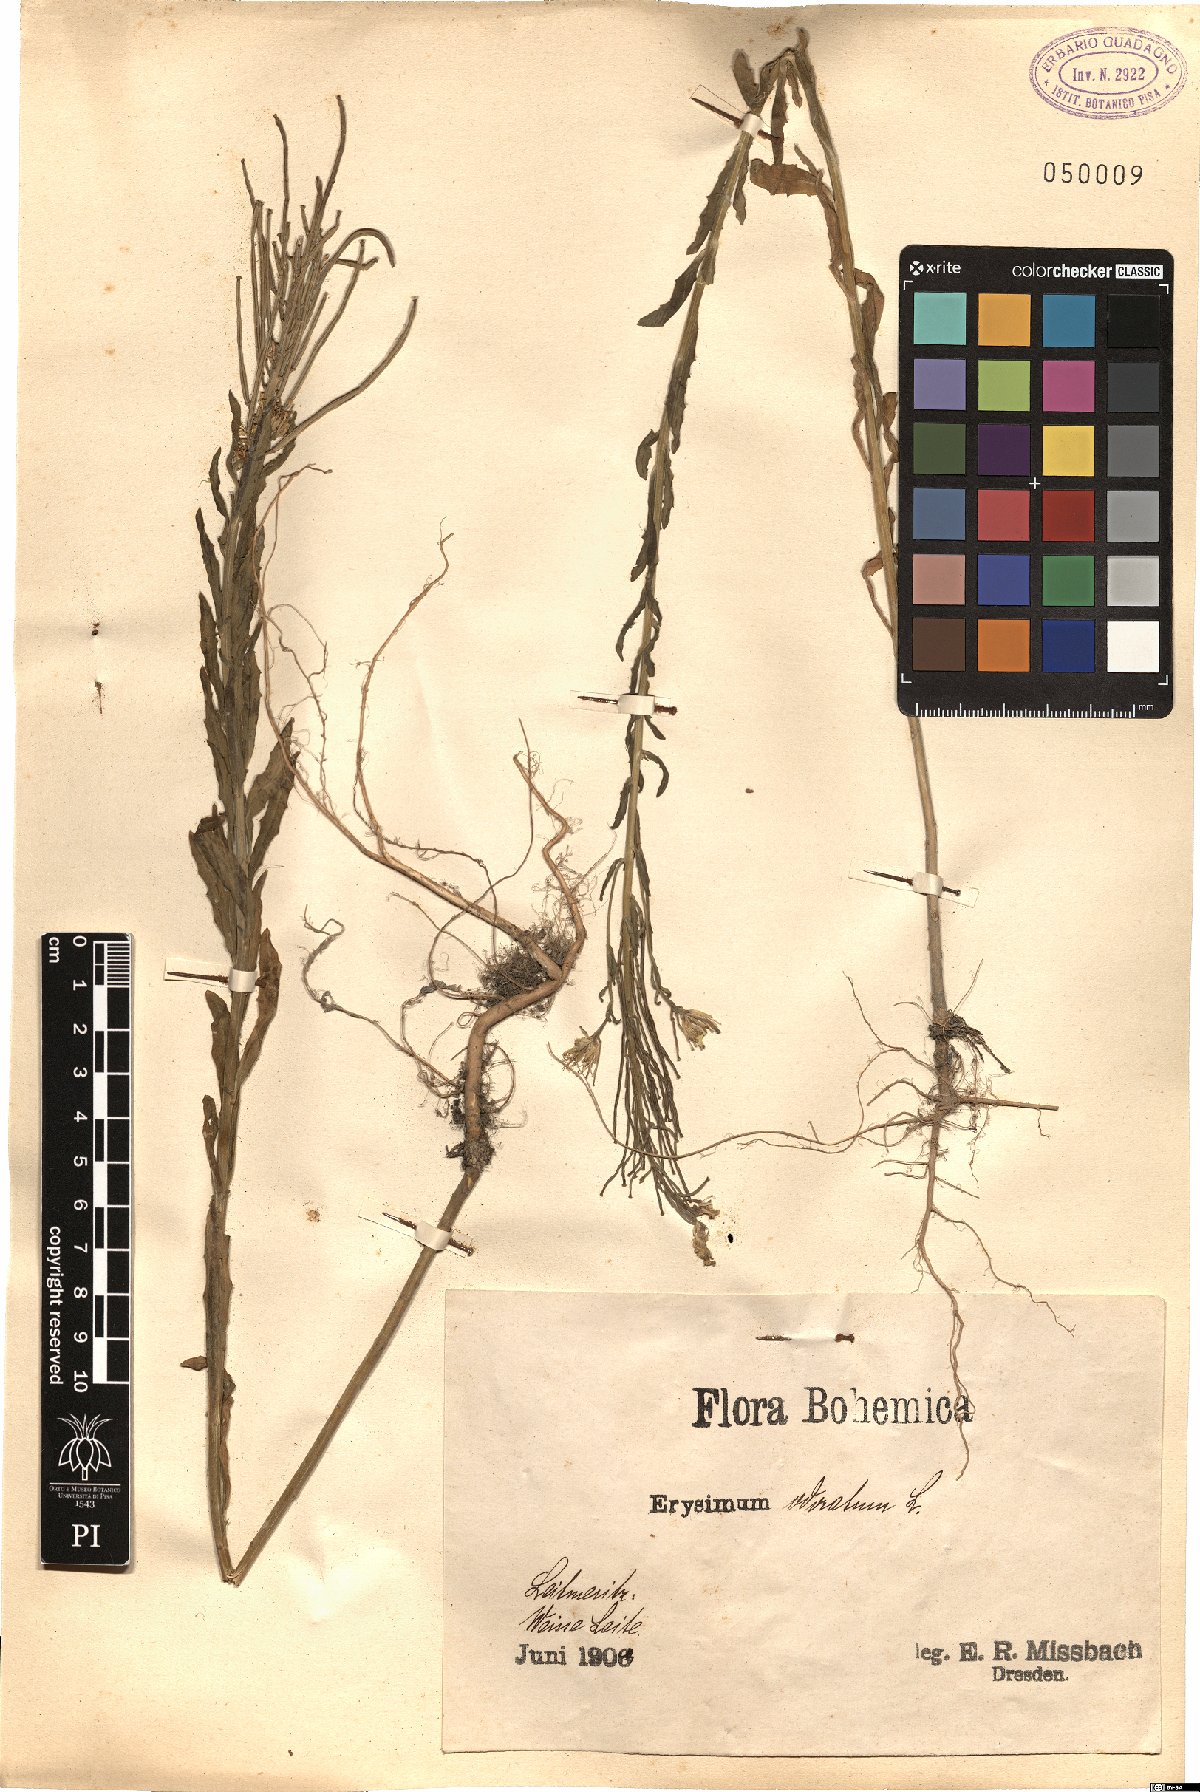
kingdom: Plantae
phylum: Tracheophyta
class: Magnoliopsida
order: Brassicales
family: Brassicaceae
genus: Erysimum
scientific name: Erysimum odoratum
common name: Smelly wallflower
